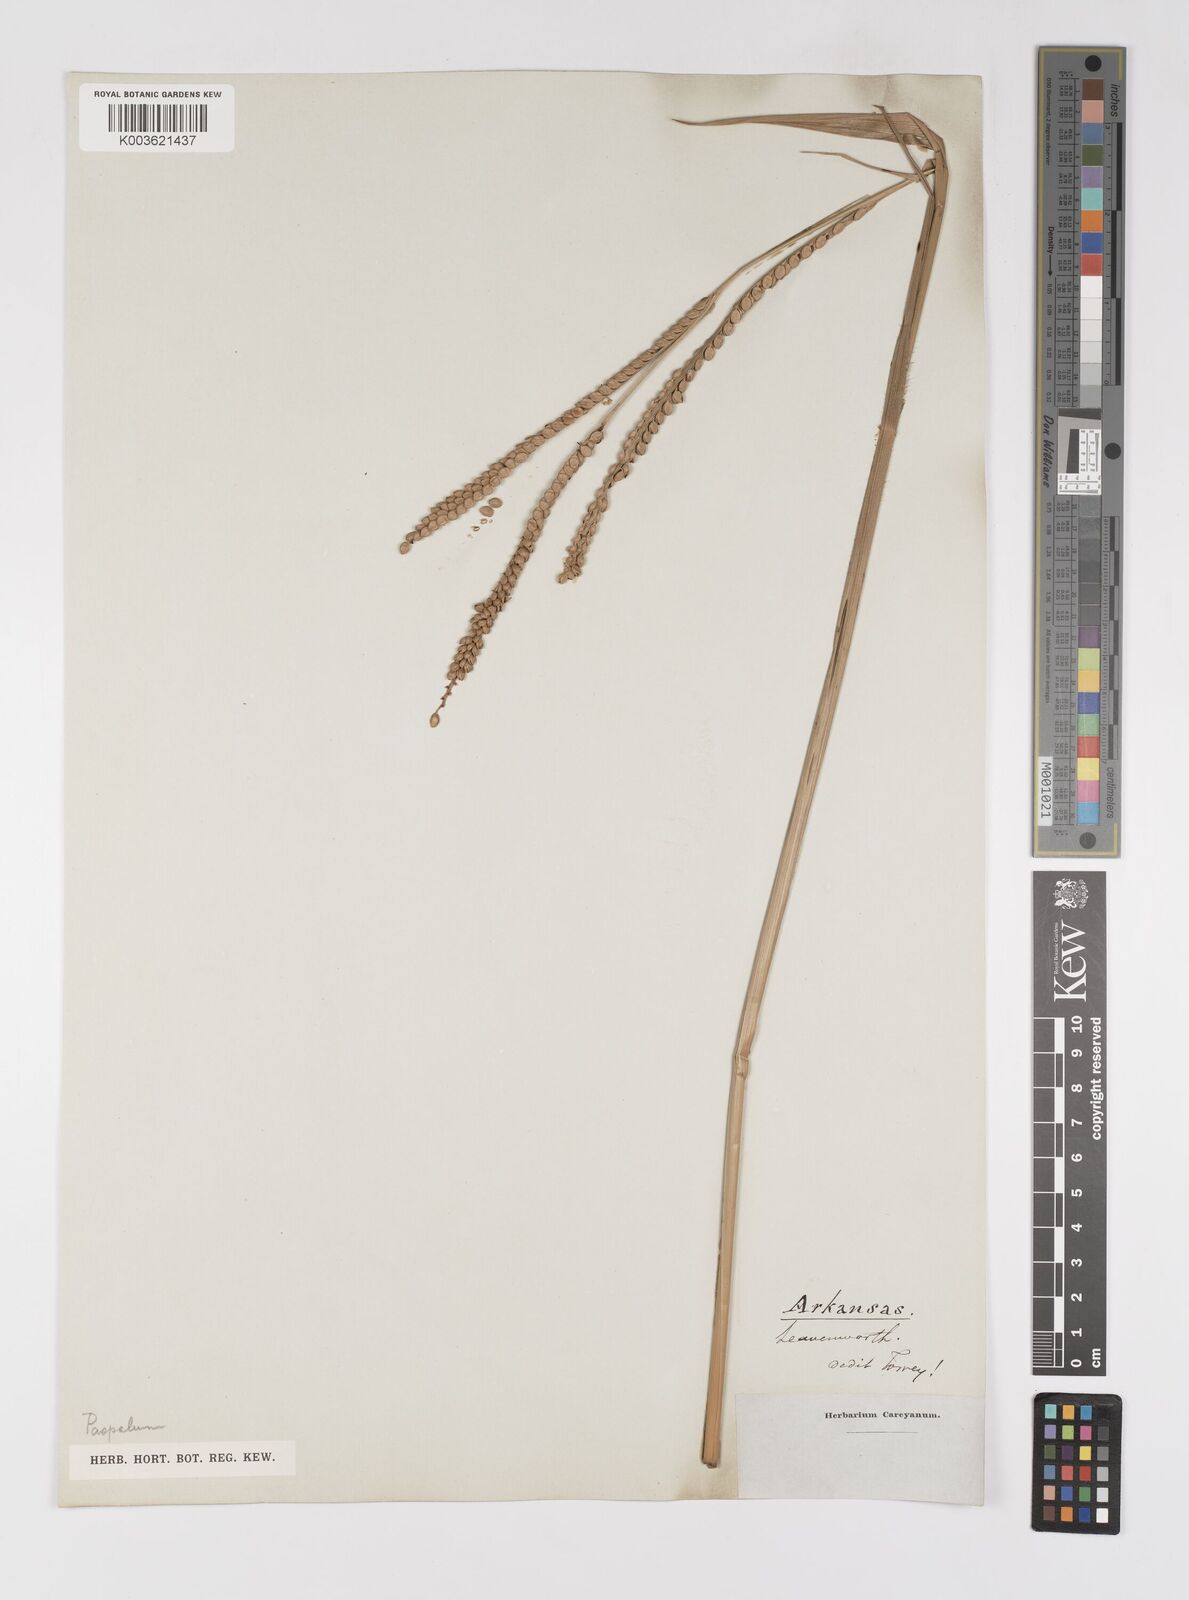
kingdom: Plantae
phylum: Tracheophyta
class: Liliopsida
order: Poales
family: Poaceae
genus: Paspalum
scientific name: Paspalum
